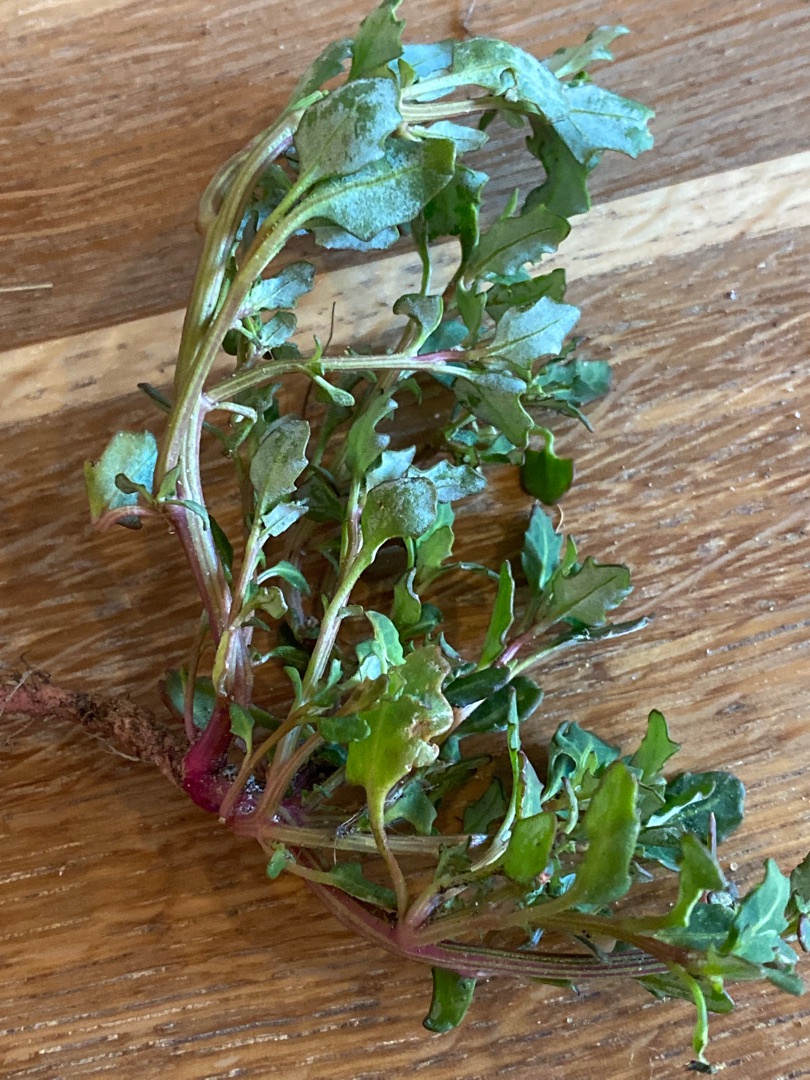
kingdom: Plantae
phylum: Tracheophyta
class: Magnoliopsida
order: Caryophyllales
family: Amaranthaceae
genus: Oxybasis
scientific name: Oxybasis glauca
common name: Blågrøn gåsefod
